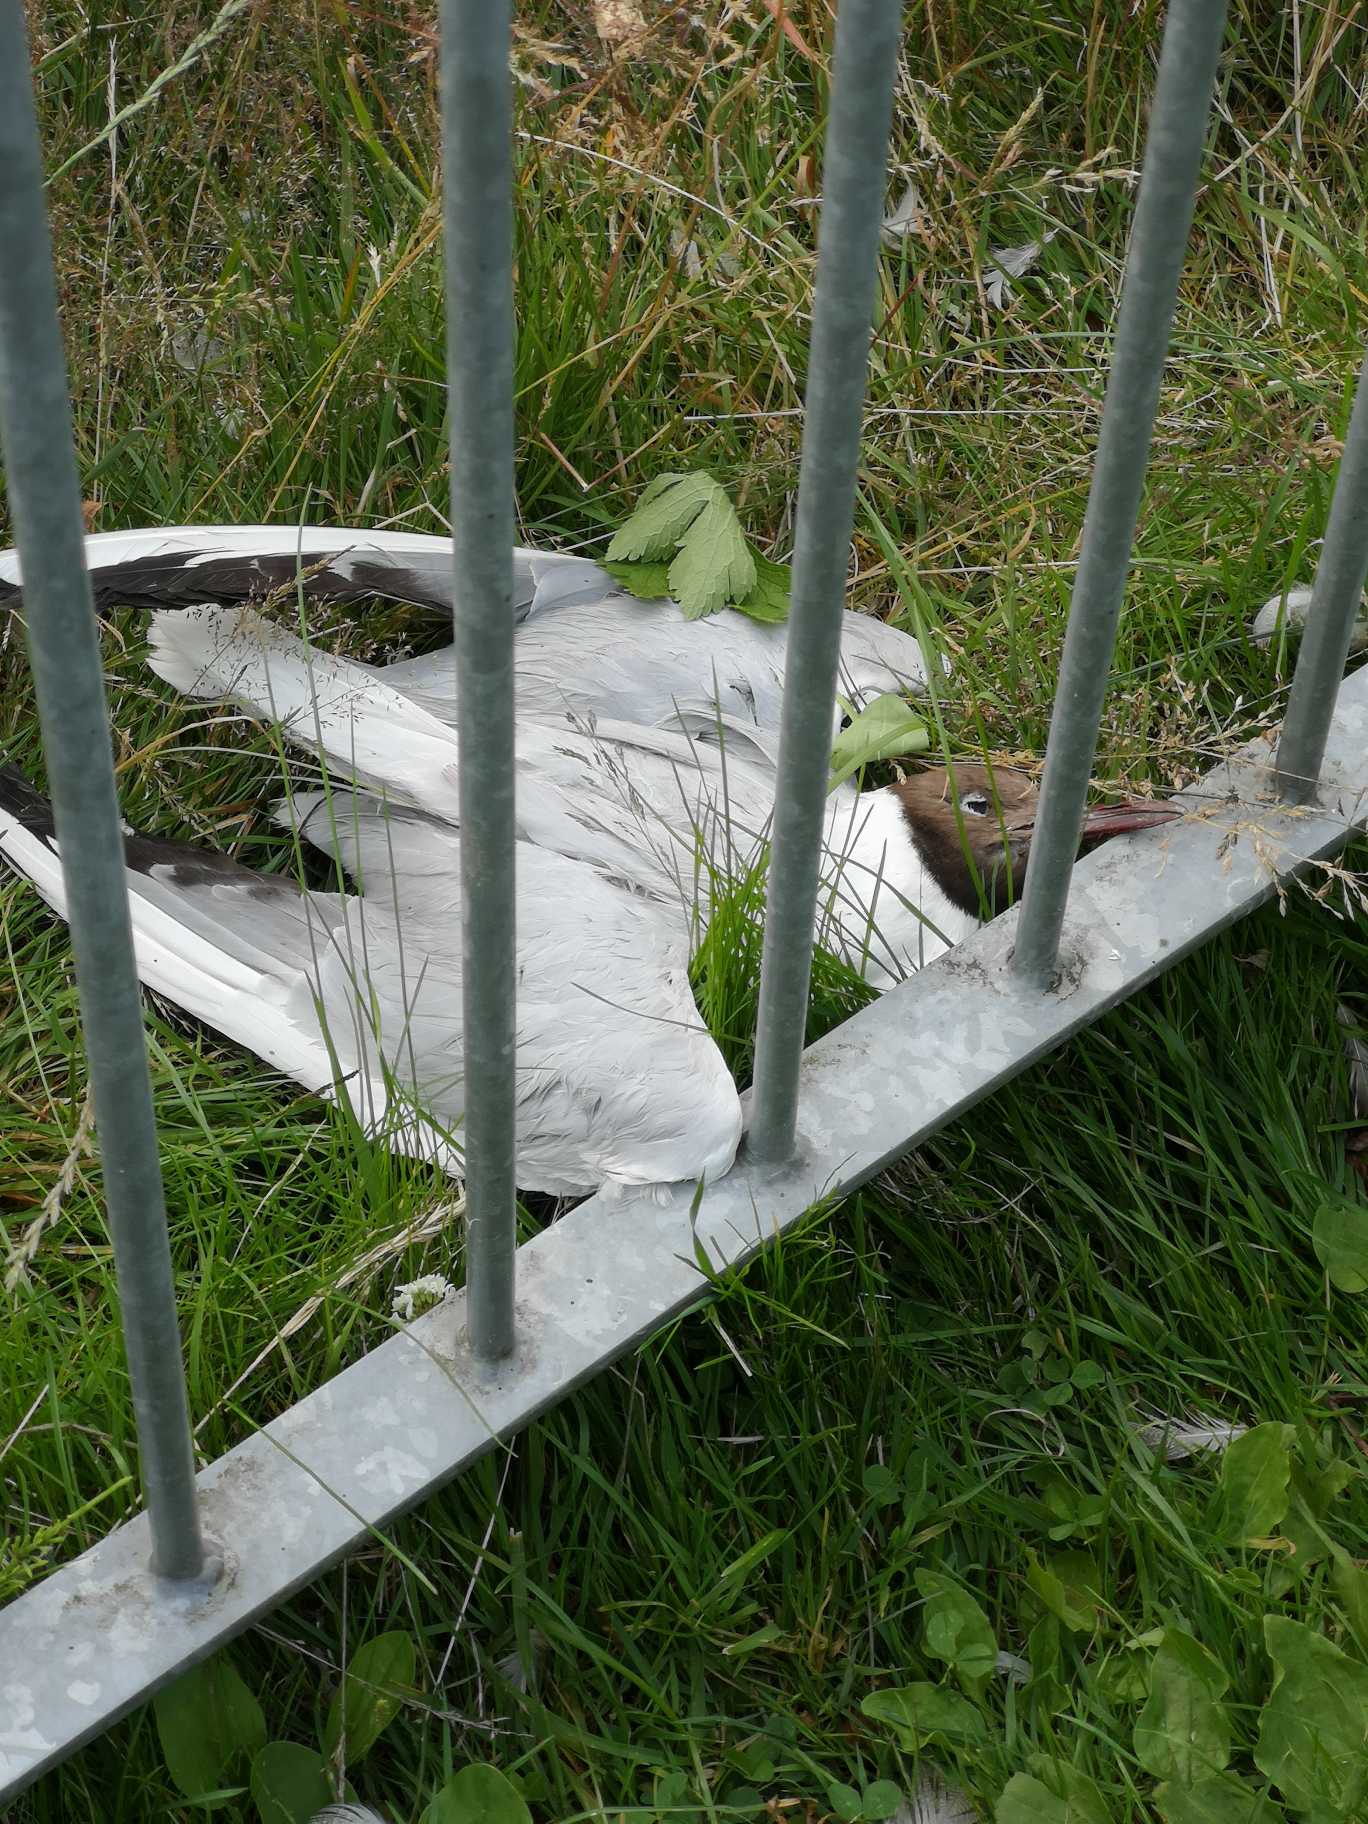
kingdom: Animalia
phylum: Chordata
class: Aves
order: Charadriiformes
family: Laridae
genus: Chroicocephalus
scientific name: Chroicocephalus ridibundus
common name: Hættemåge
